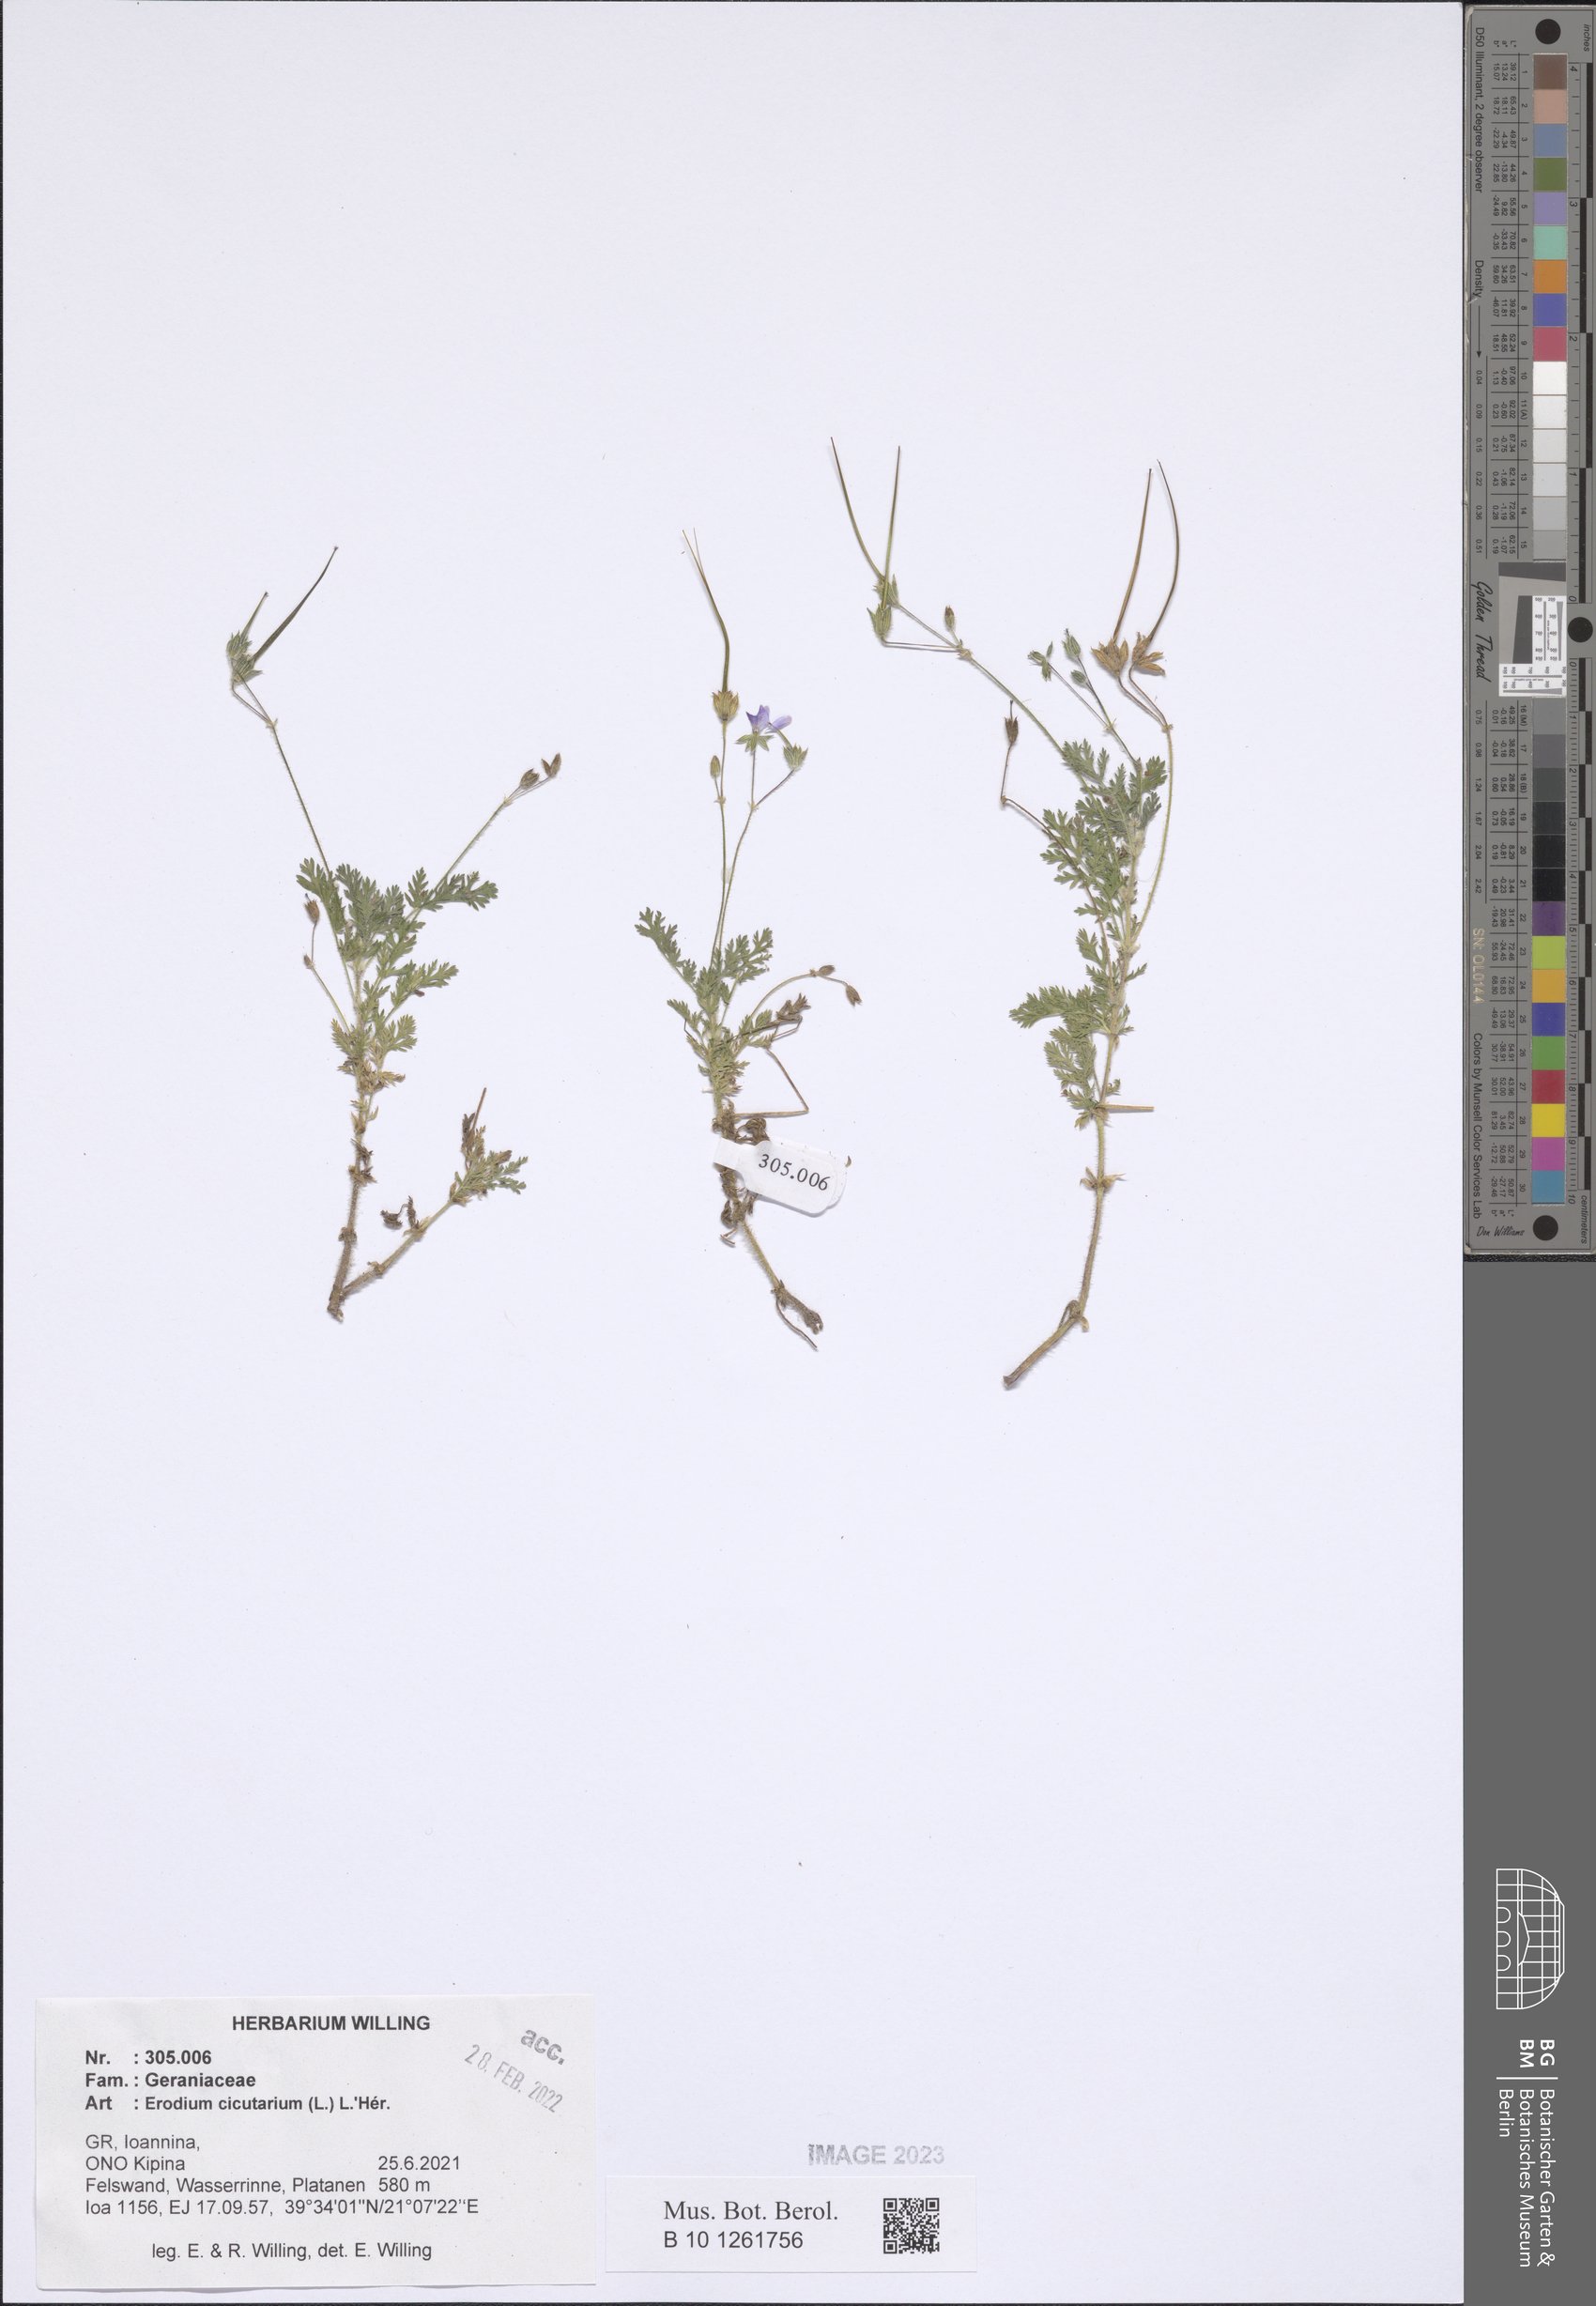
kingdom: Plantae
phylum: Tracheophyta
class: Magnoliopsida
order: Geraniales
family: Geraniaceae
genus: Erodium
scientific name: Erodium cicutarium
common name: Common stork's-bill
